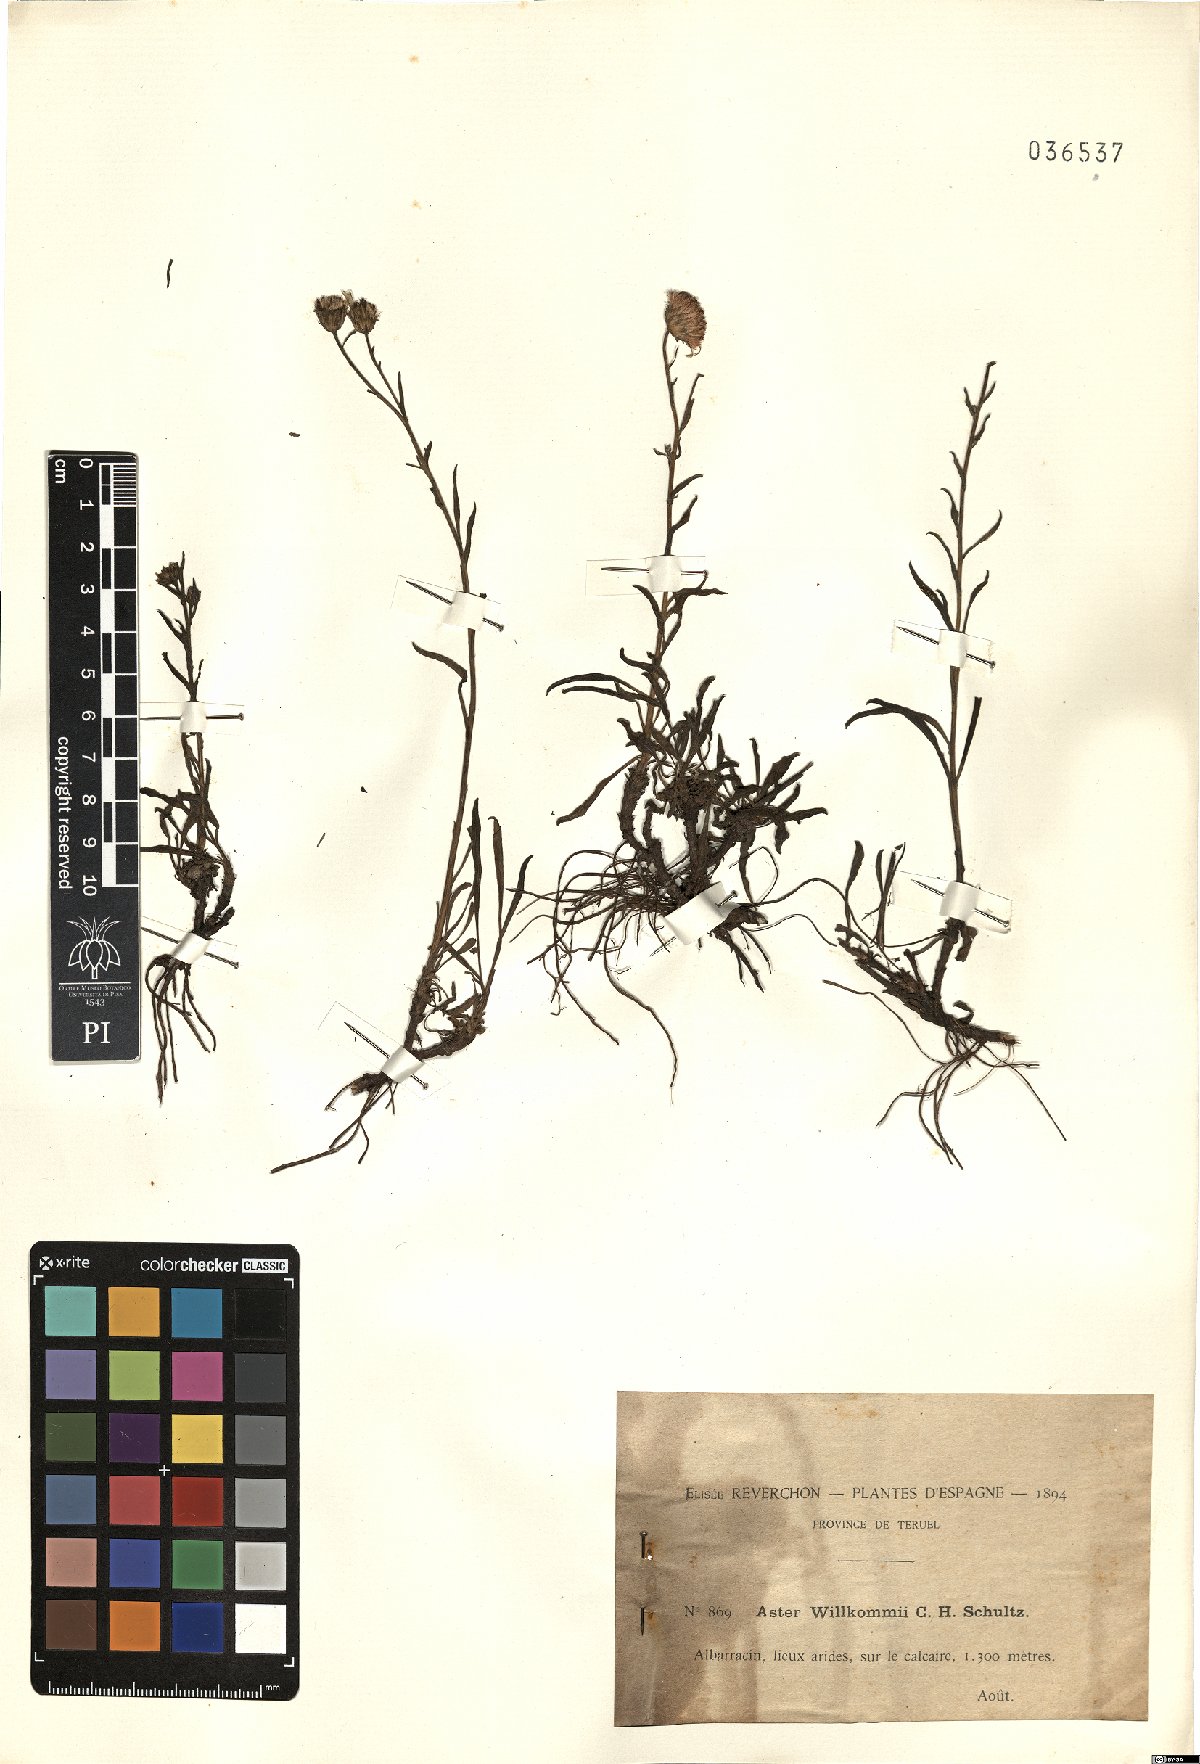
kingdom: Plantae
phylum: Tracheophyta
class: Magnoliopsida
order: Asterales
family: Asteraceae
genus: Aster
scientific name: Aster willkommii
